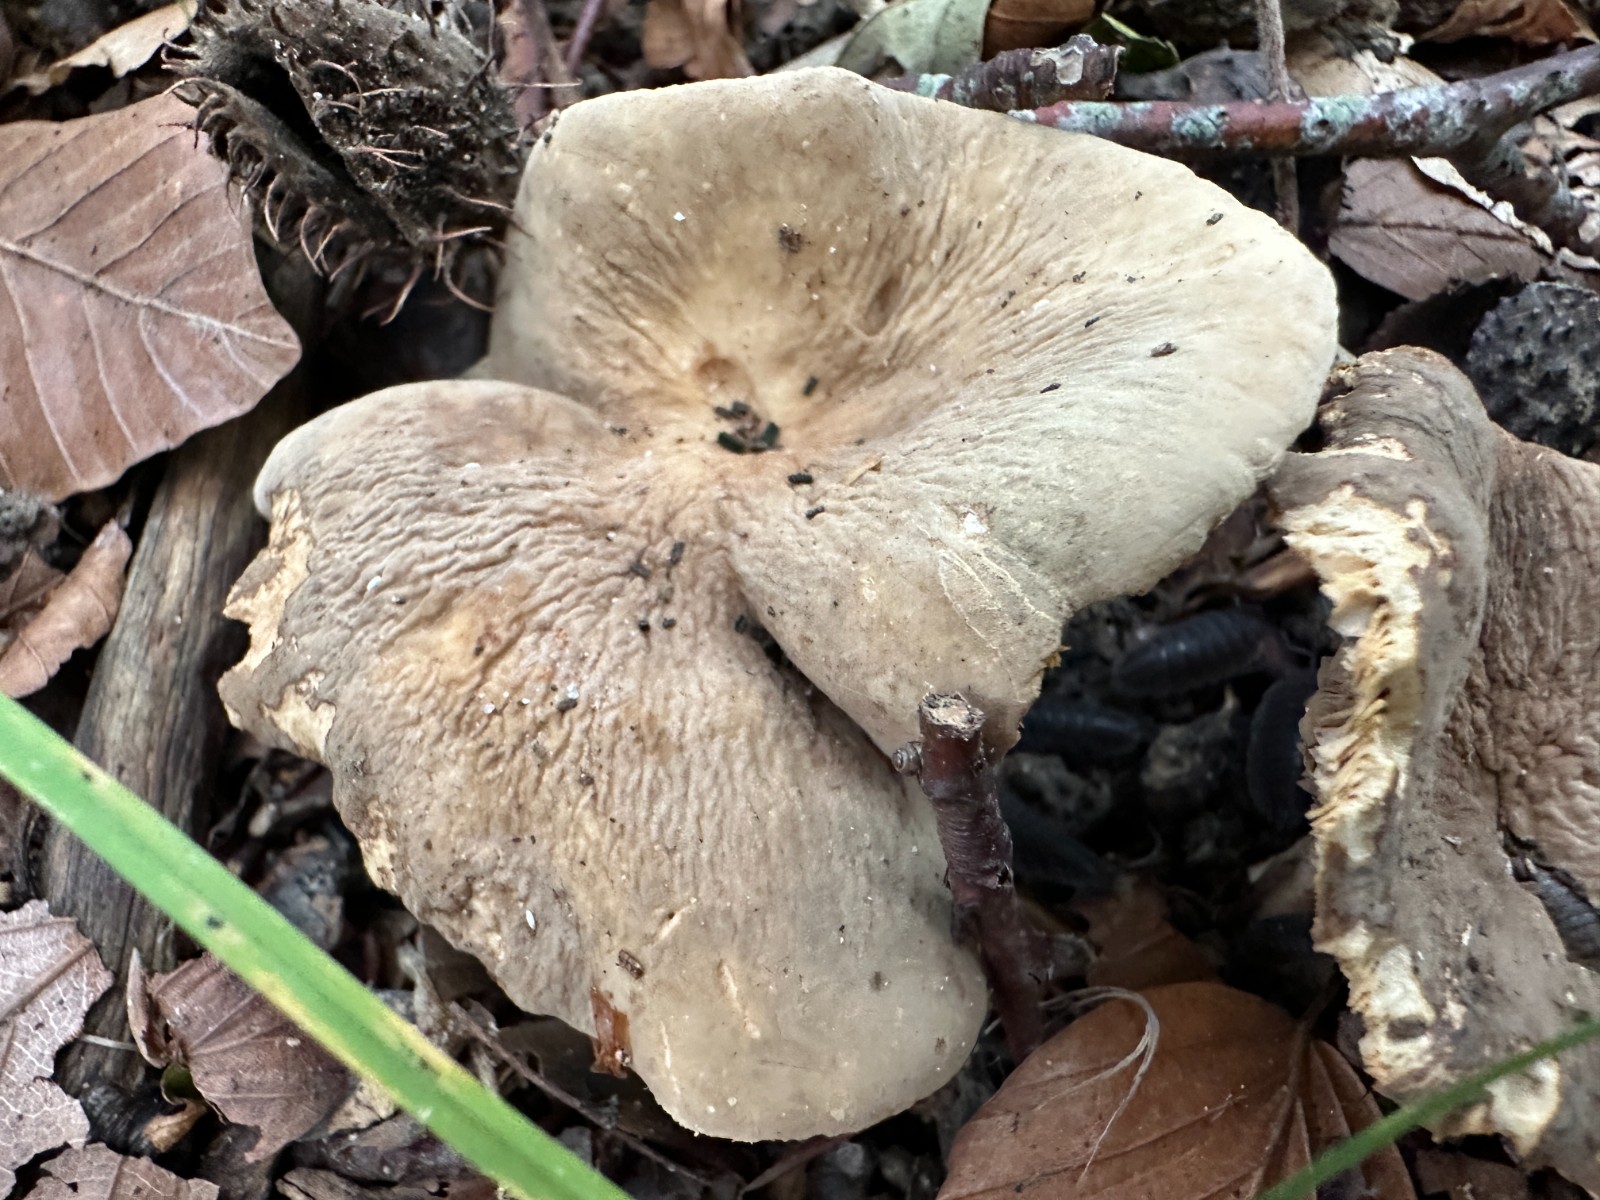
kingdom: Fungi
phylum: Basidiomycota
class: Agaricomycetes
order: Russulales
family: Russulaceae
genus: Lactarius
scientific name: Lactarius pterosporus
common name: vingesporet mælkehat
